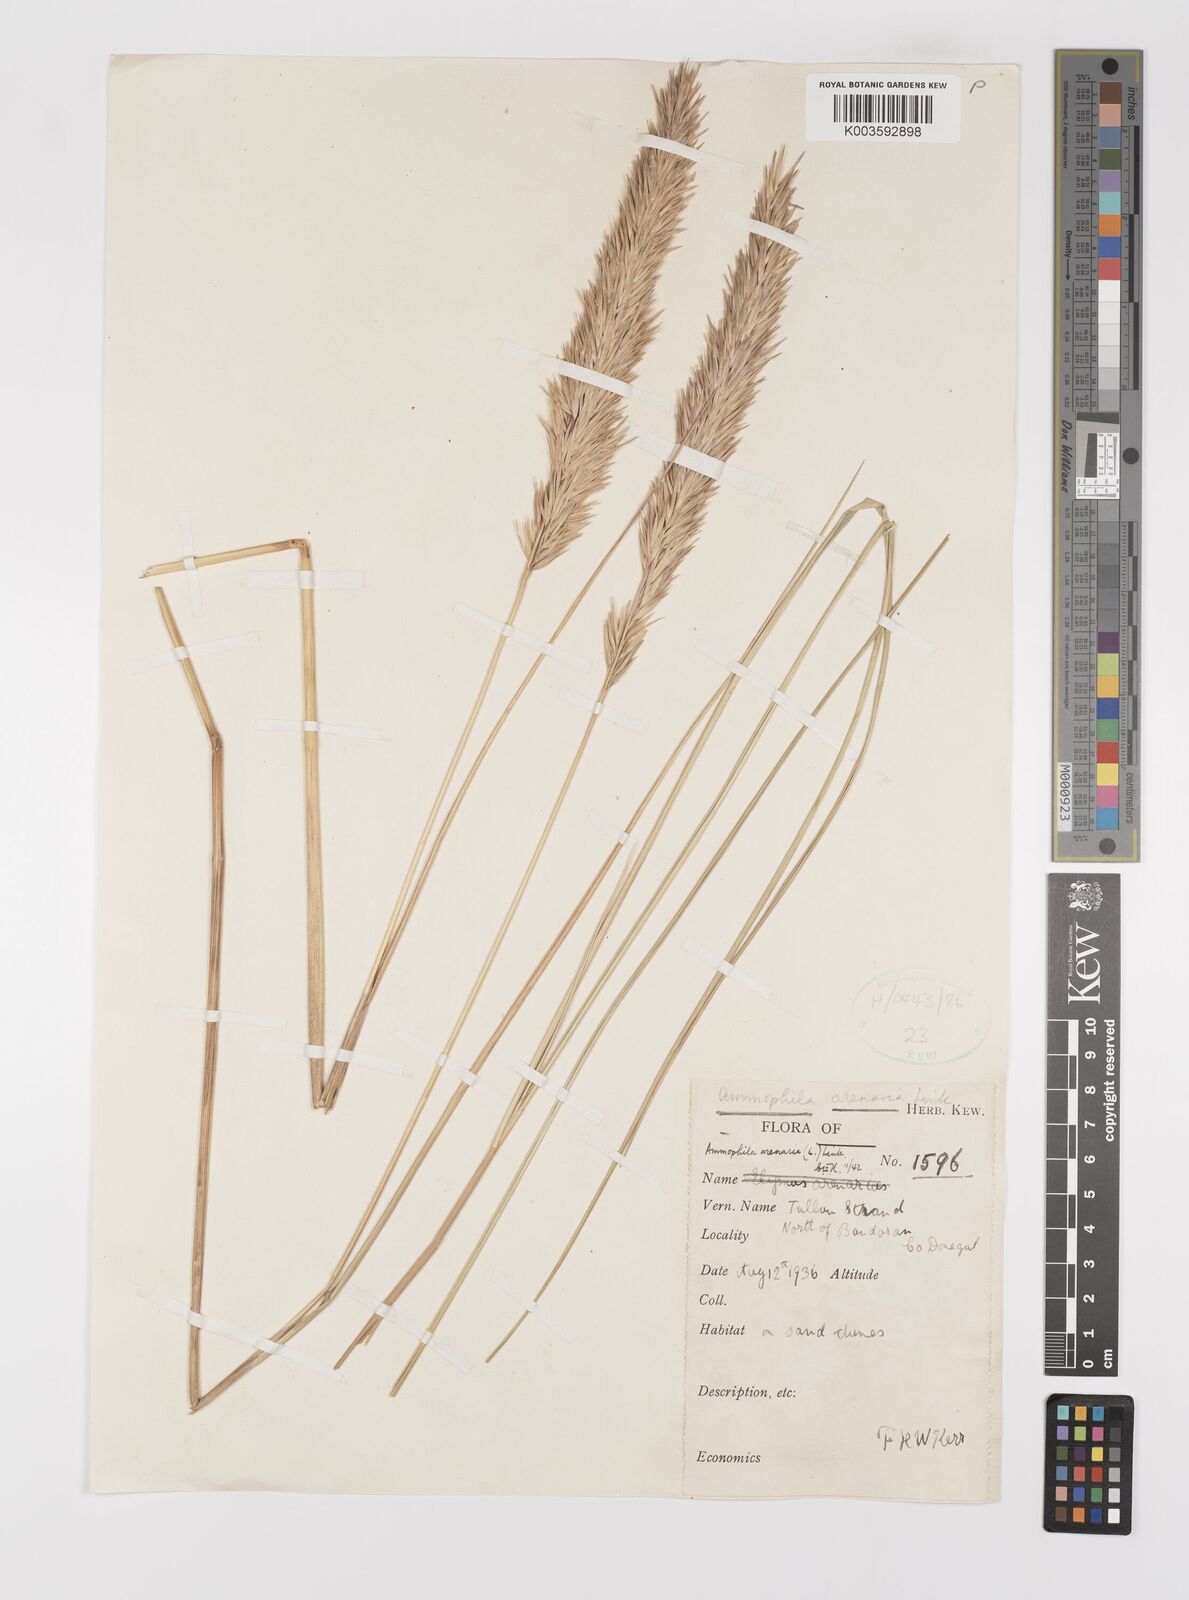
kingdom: Plantae
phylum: Tracheophyta
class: Liliopsida
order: Poales
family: Poaceae
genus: Calamagrostis
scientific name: Calamagrostis arenaria
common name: European beachgrass
